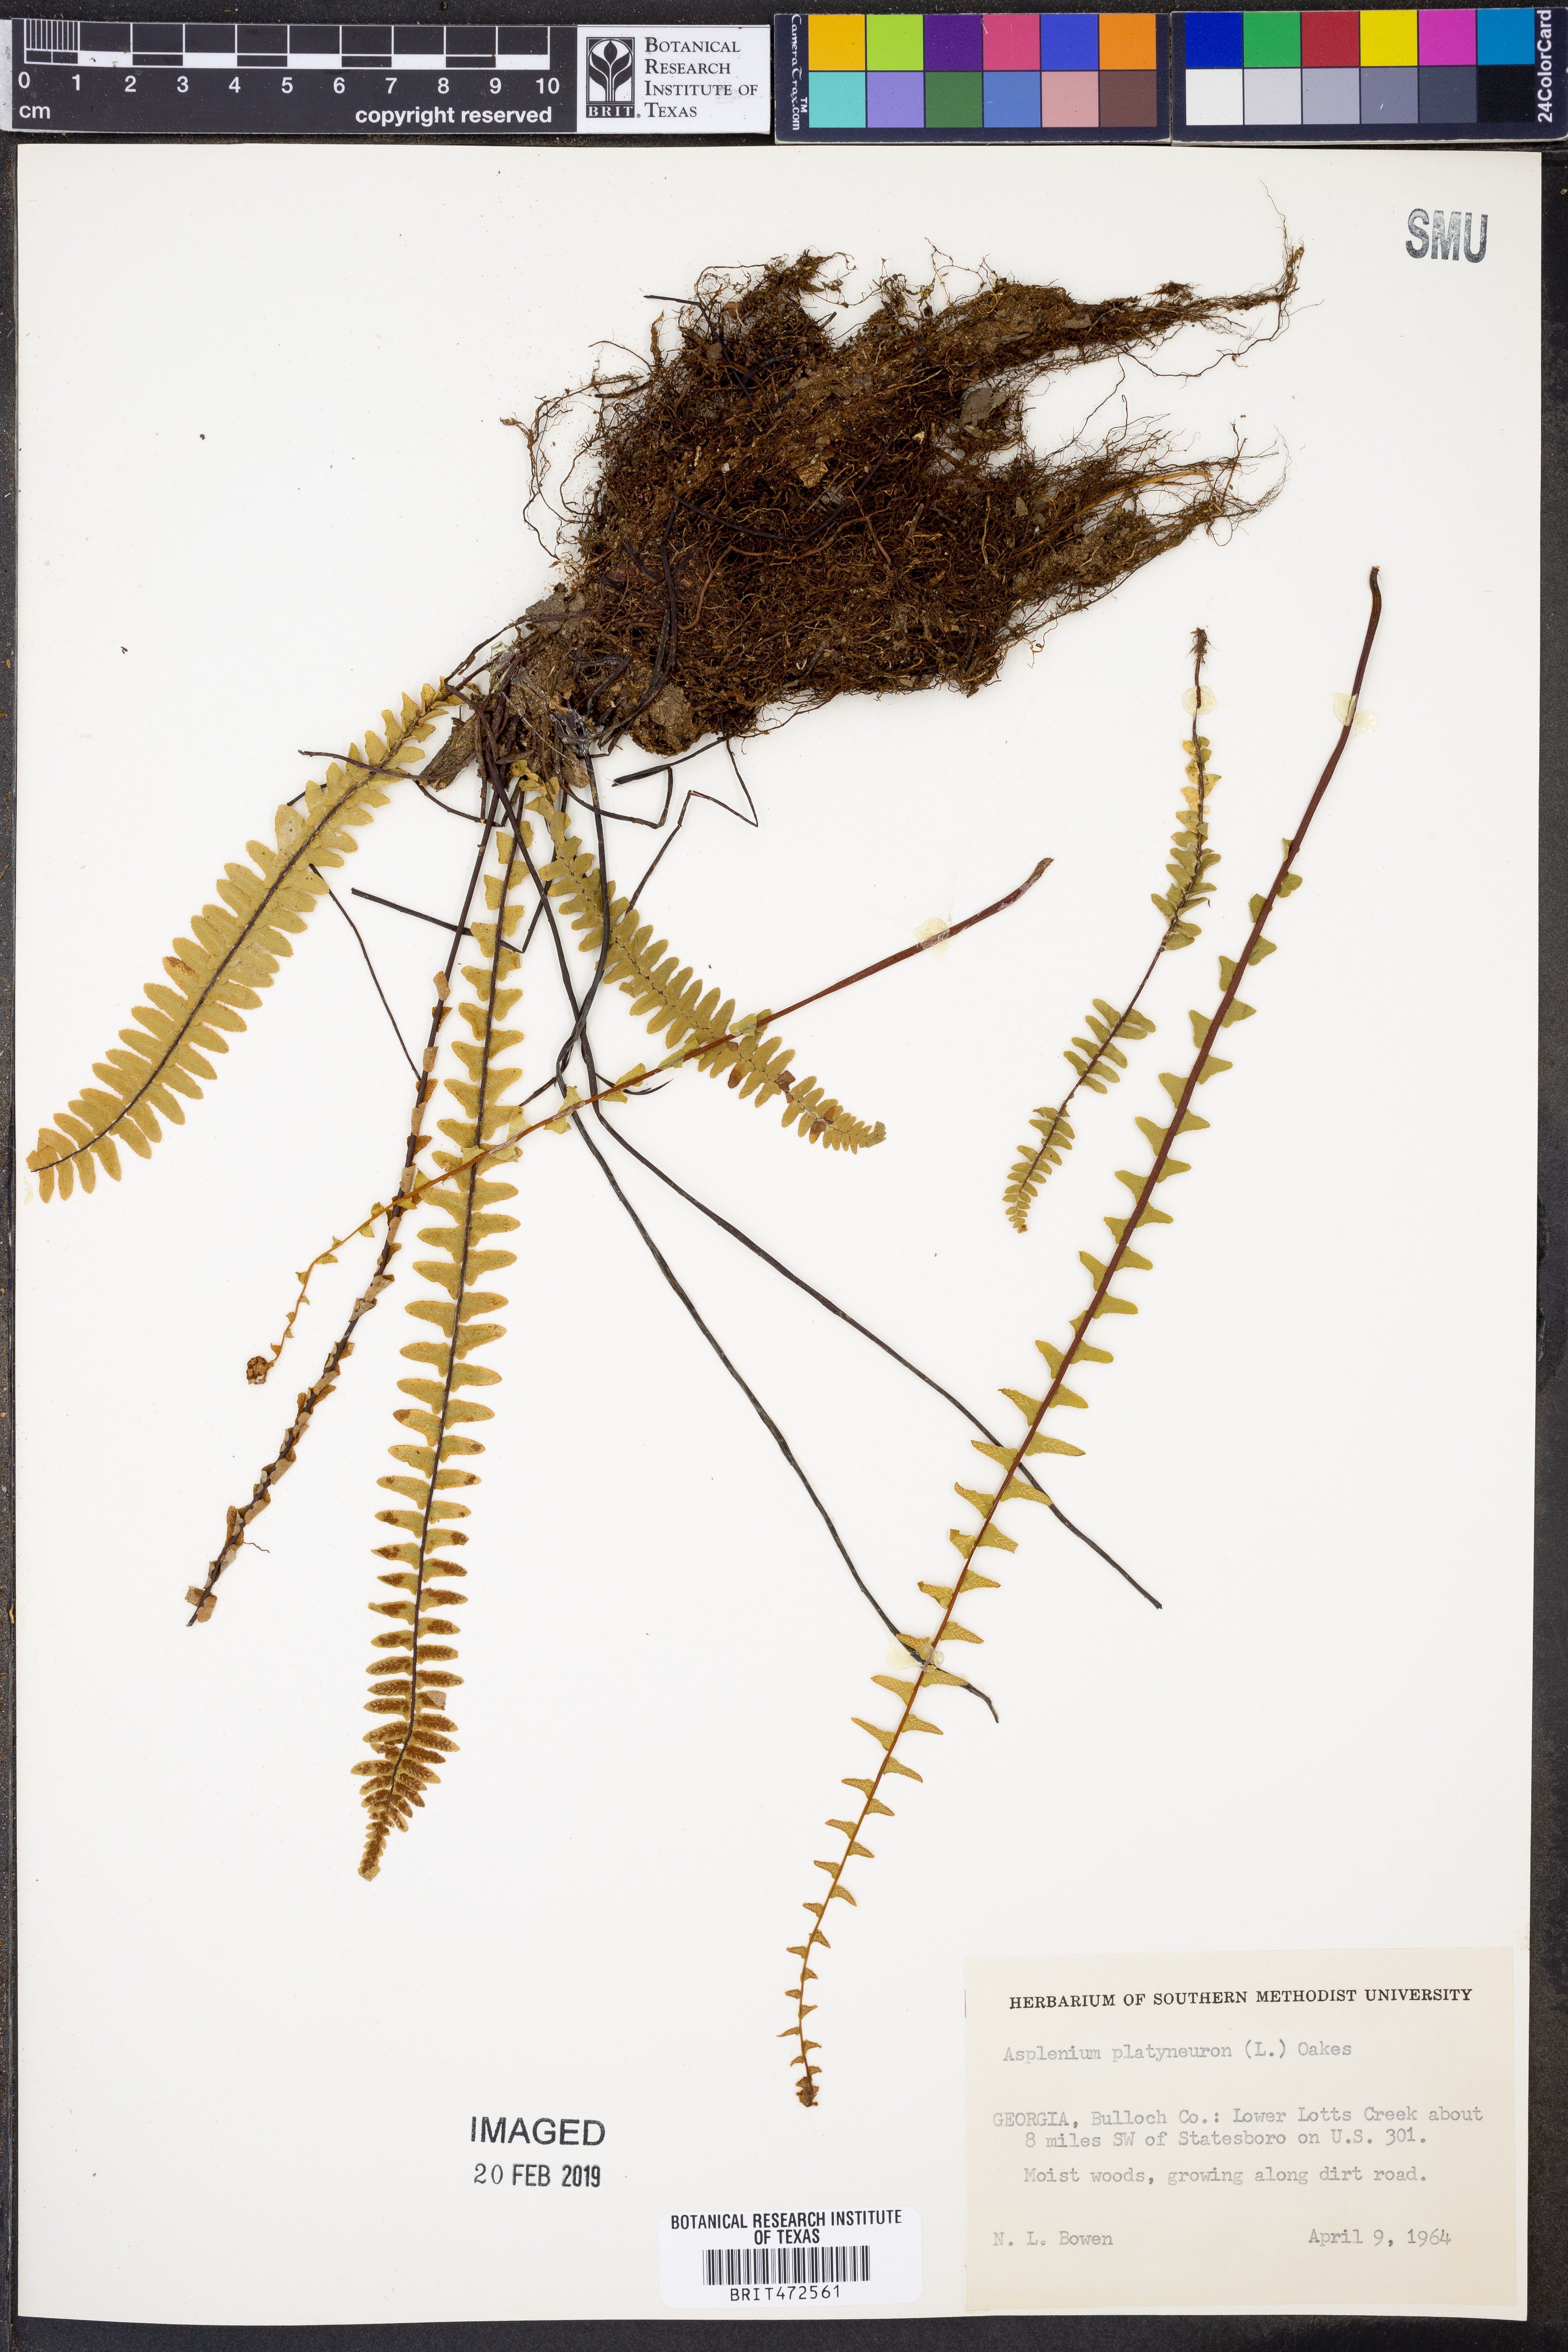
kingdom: Plantae
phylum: Tracheophyta
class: Polypodiopsida
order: Polypodiales
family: Aspleniaceae
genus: Asplenium
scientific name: Asplenium platyneuron
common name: Ebony spleenwort
